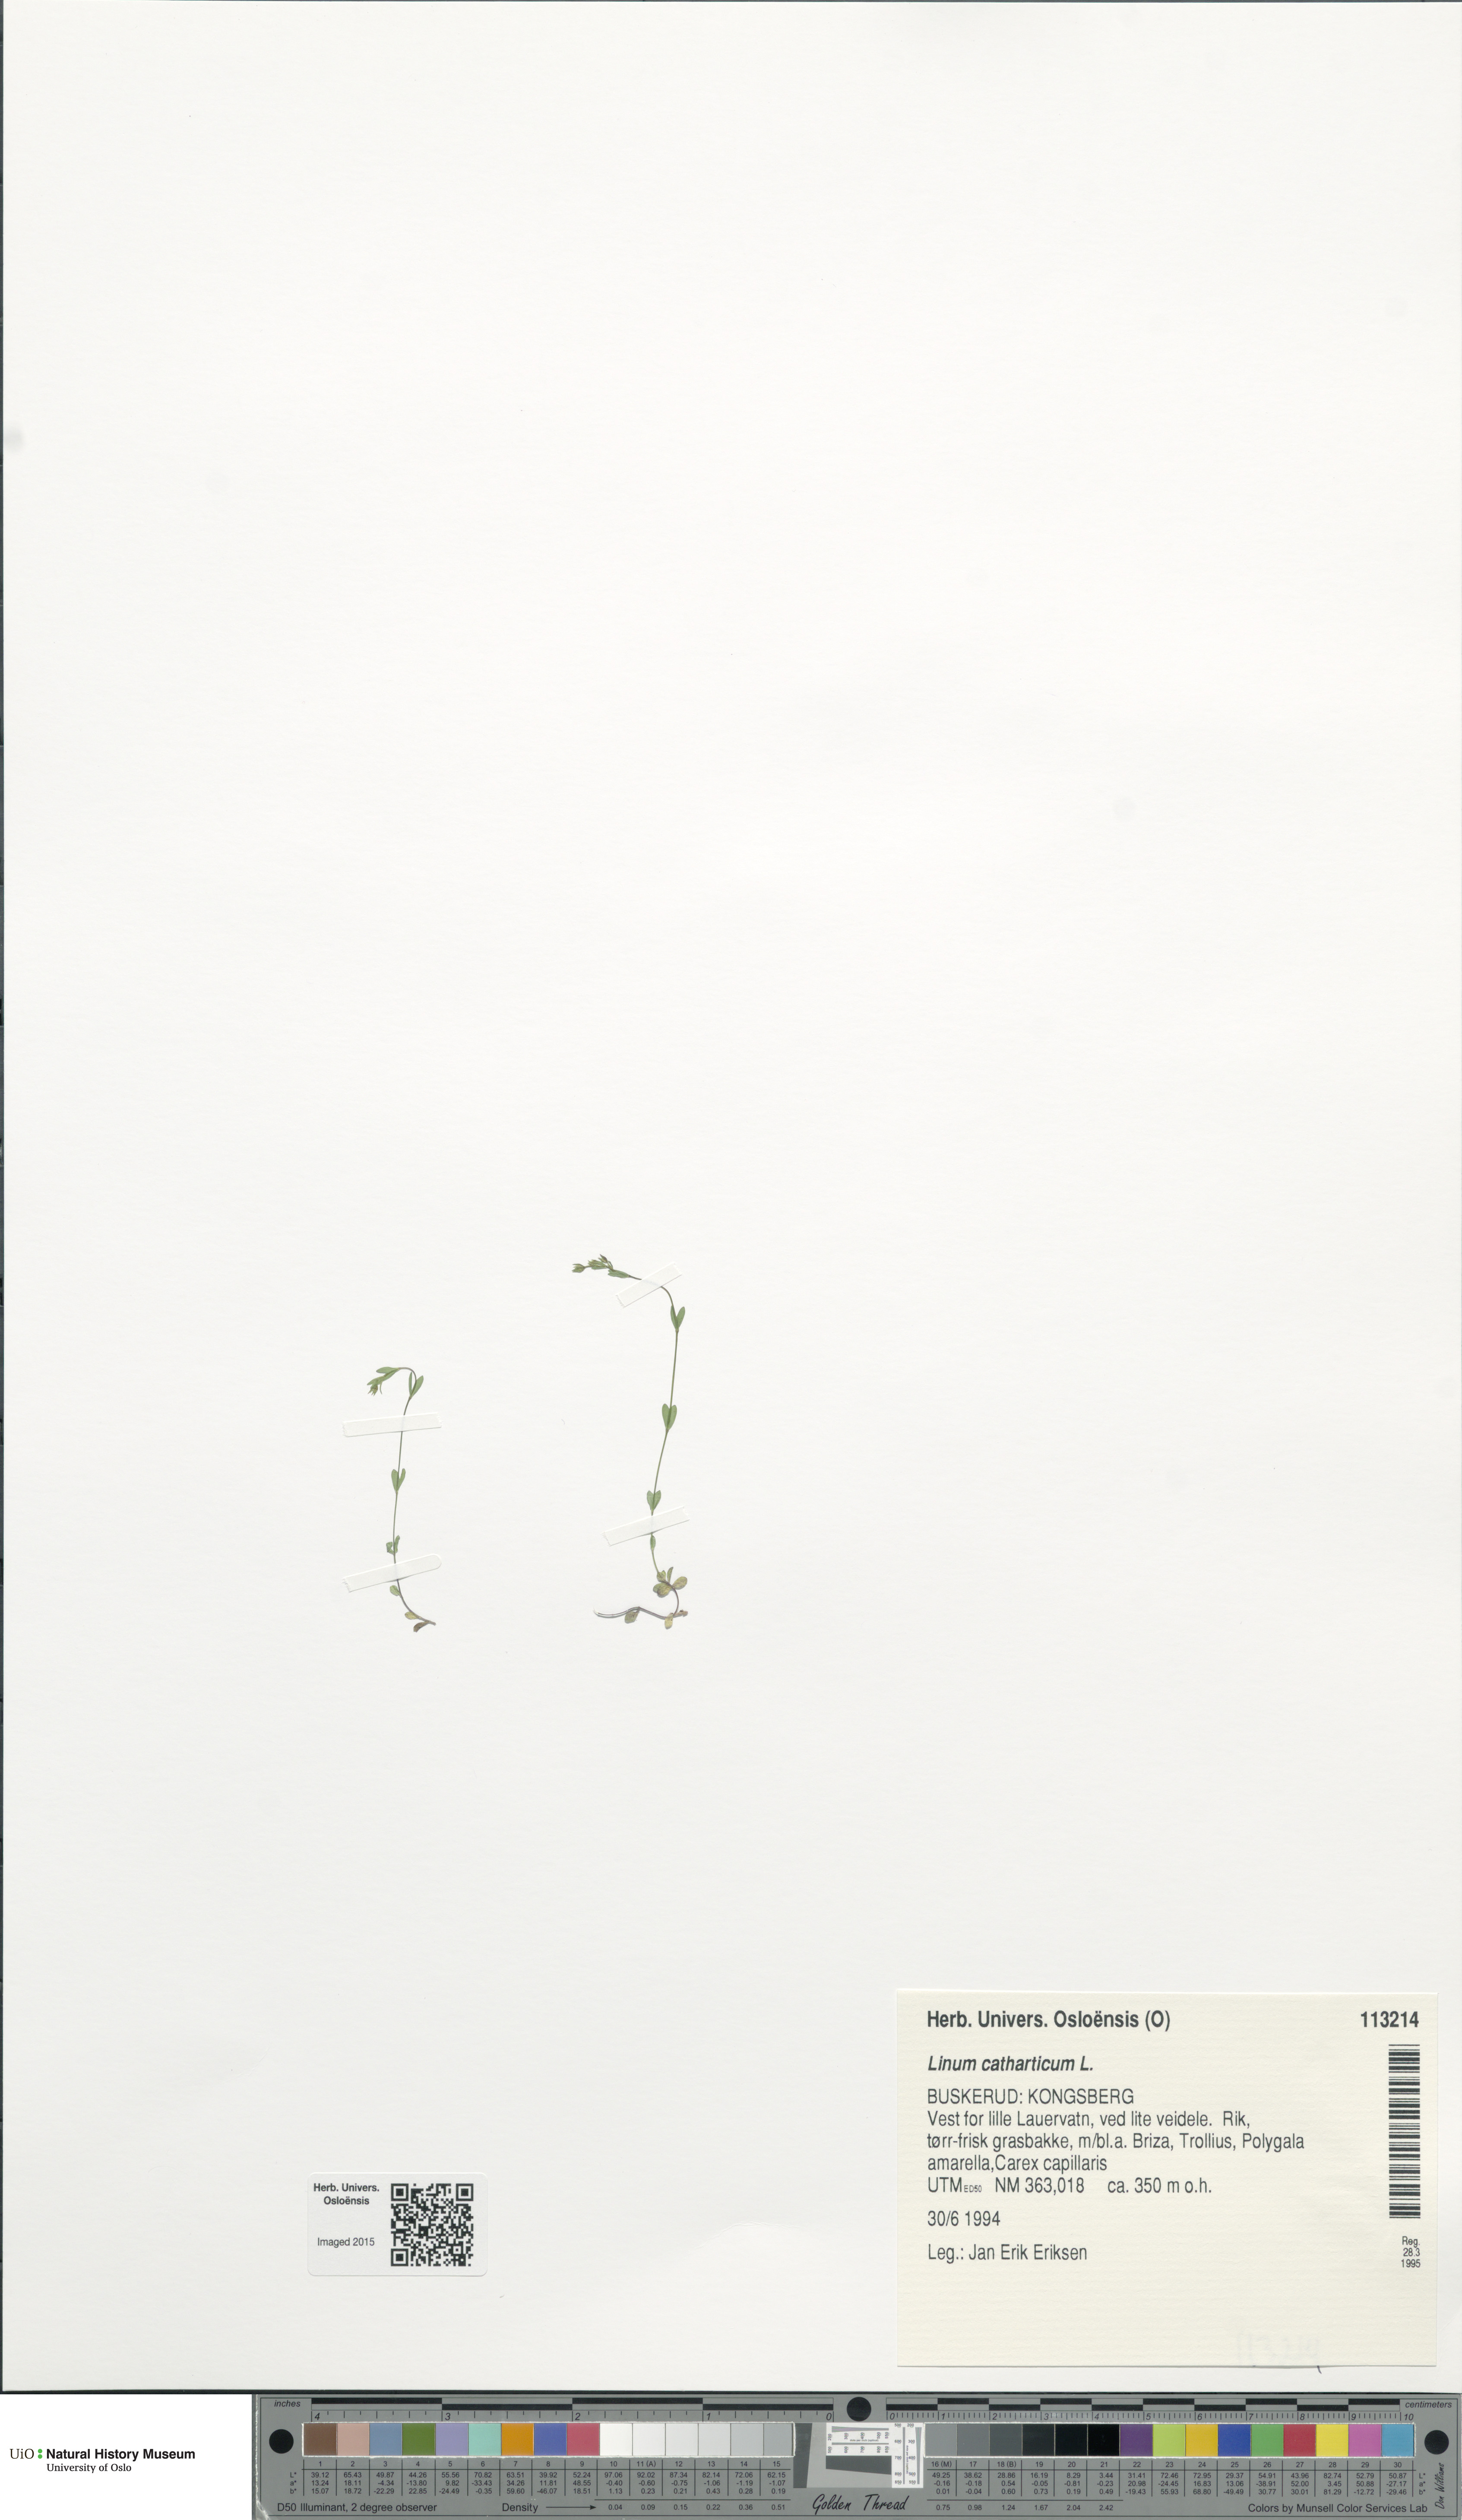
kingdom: Plantae
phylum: Tracheophyta
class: Magnoliopsida
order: Malpighiales
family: Linaceae
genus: Linum
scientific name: Linum catharticum
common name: Fairy flax
